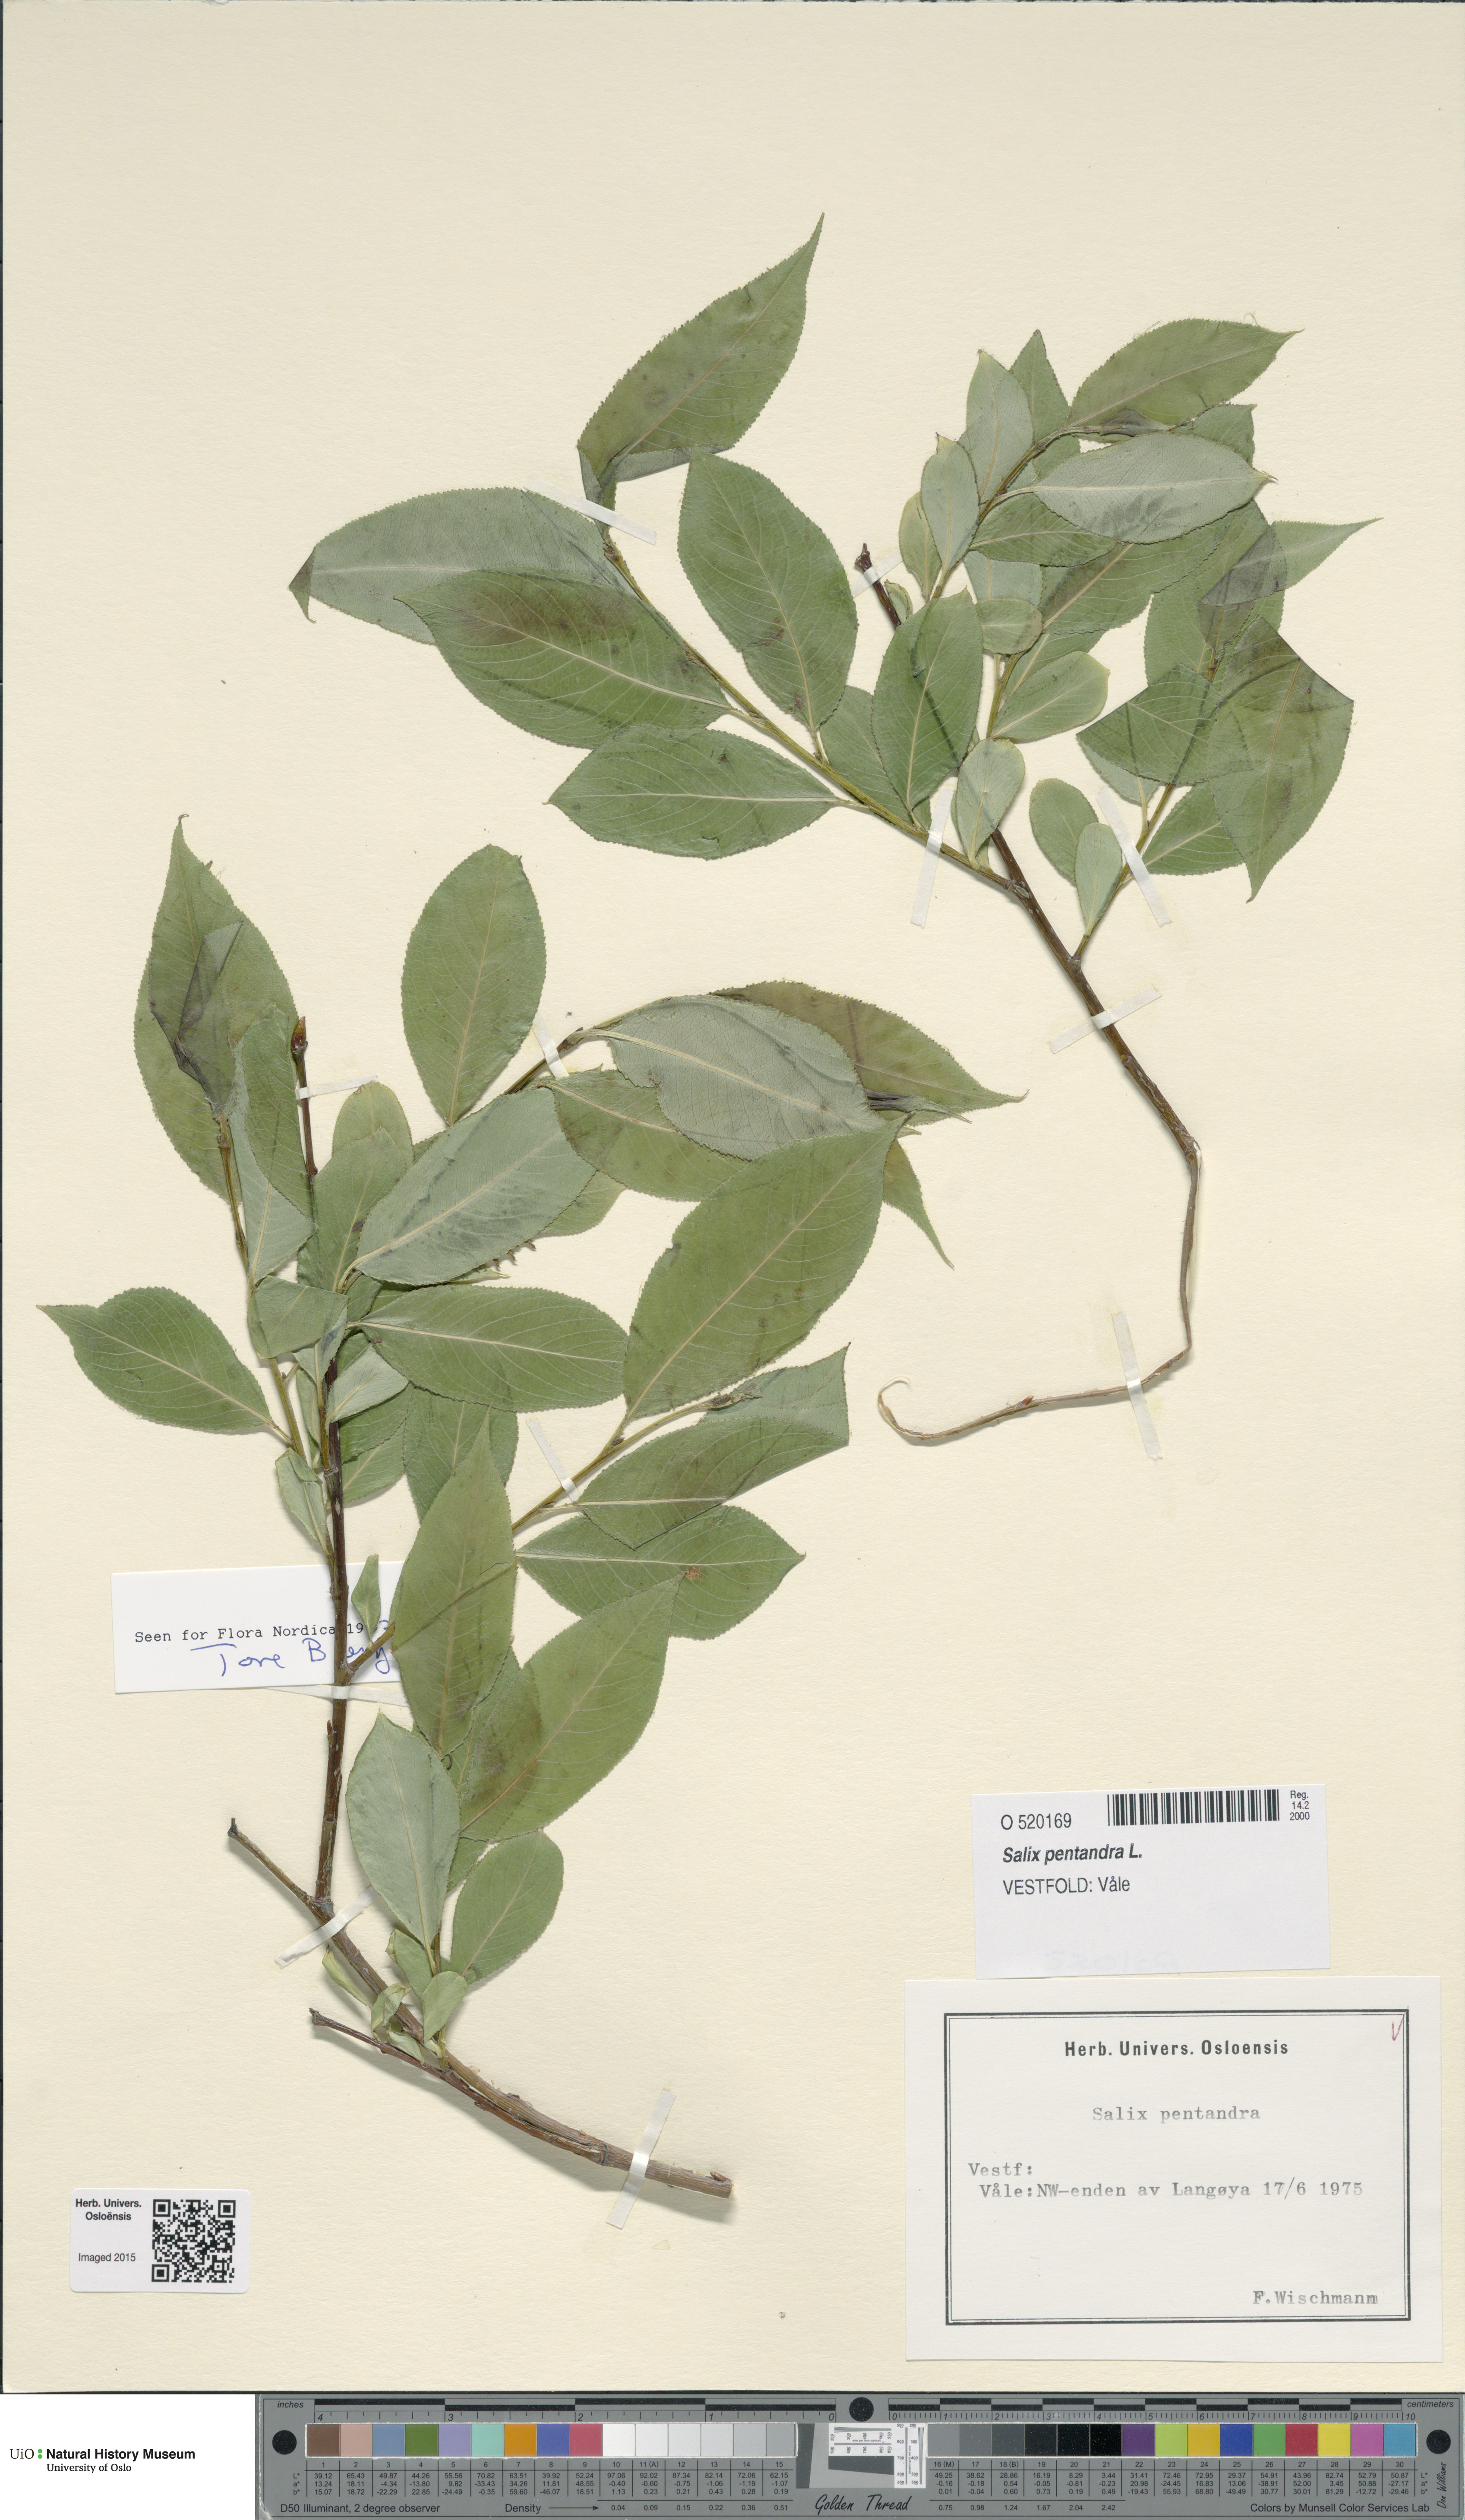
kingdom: Plantae
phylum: Tracheophyta
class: Magnoliopsida
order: Malpighiales
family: Salicaceae
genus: Salix
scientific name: Salix pentandra
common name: Bay willow
